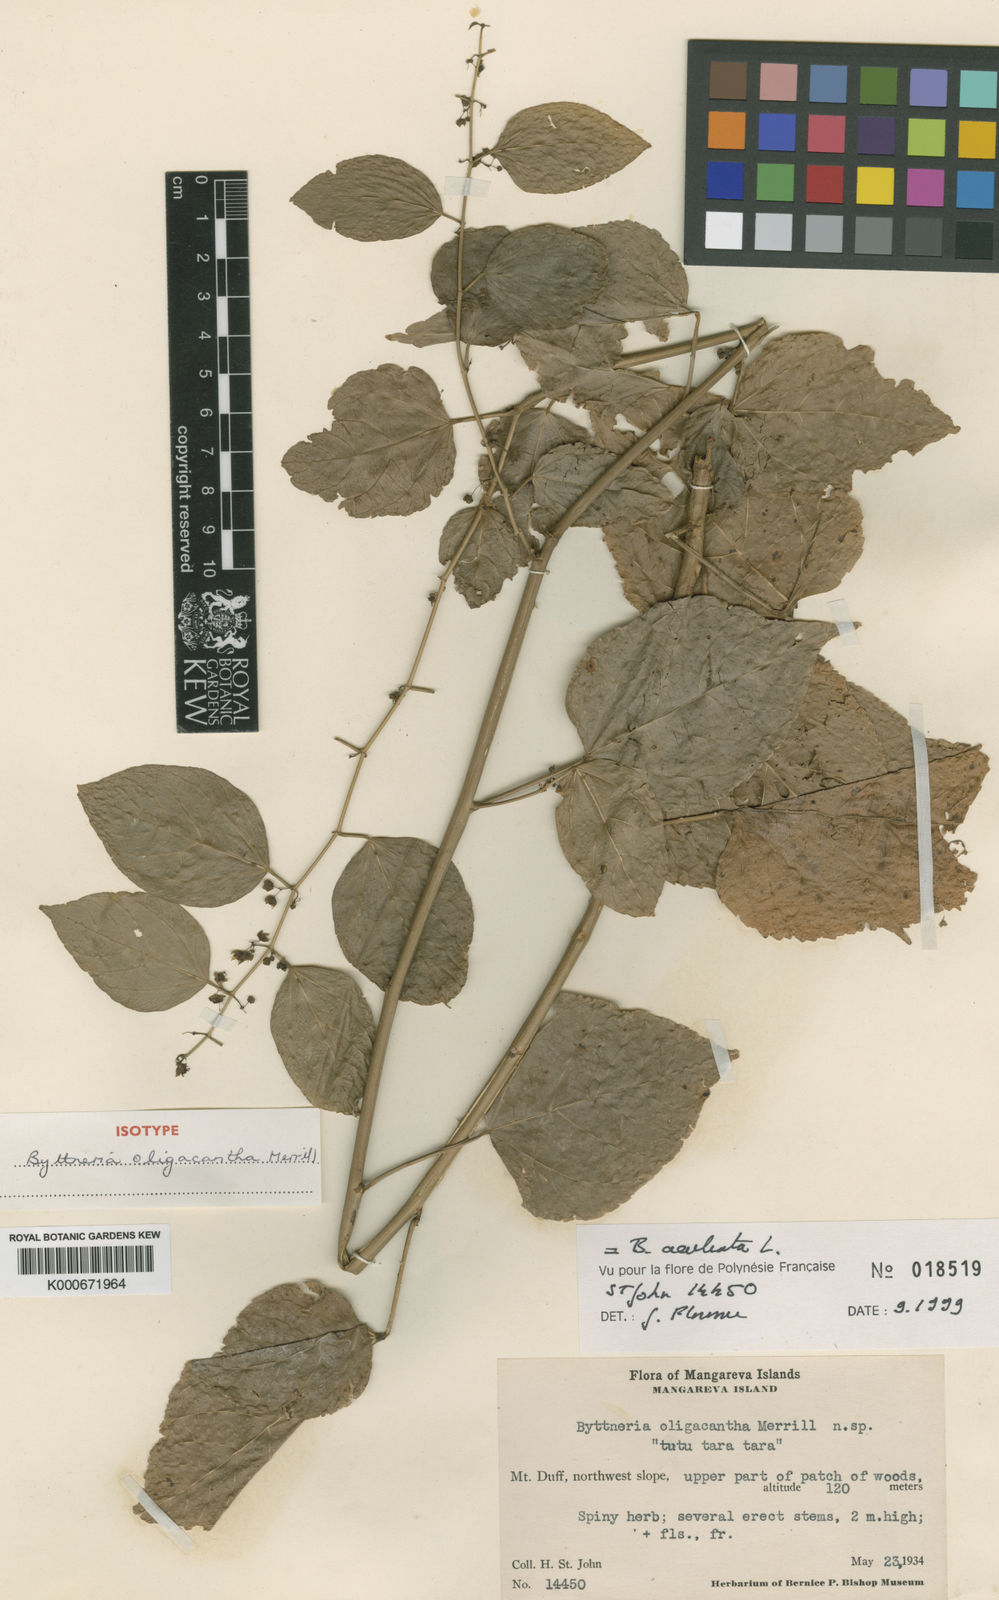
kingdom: Plantae
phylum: Tracheophyta
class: Magnoliopsida
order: Malvales
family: Malvaceae
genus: Byttneria
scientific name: Byttneria aculeata
